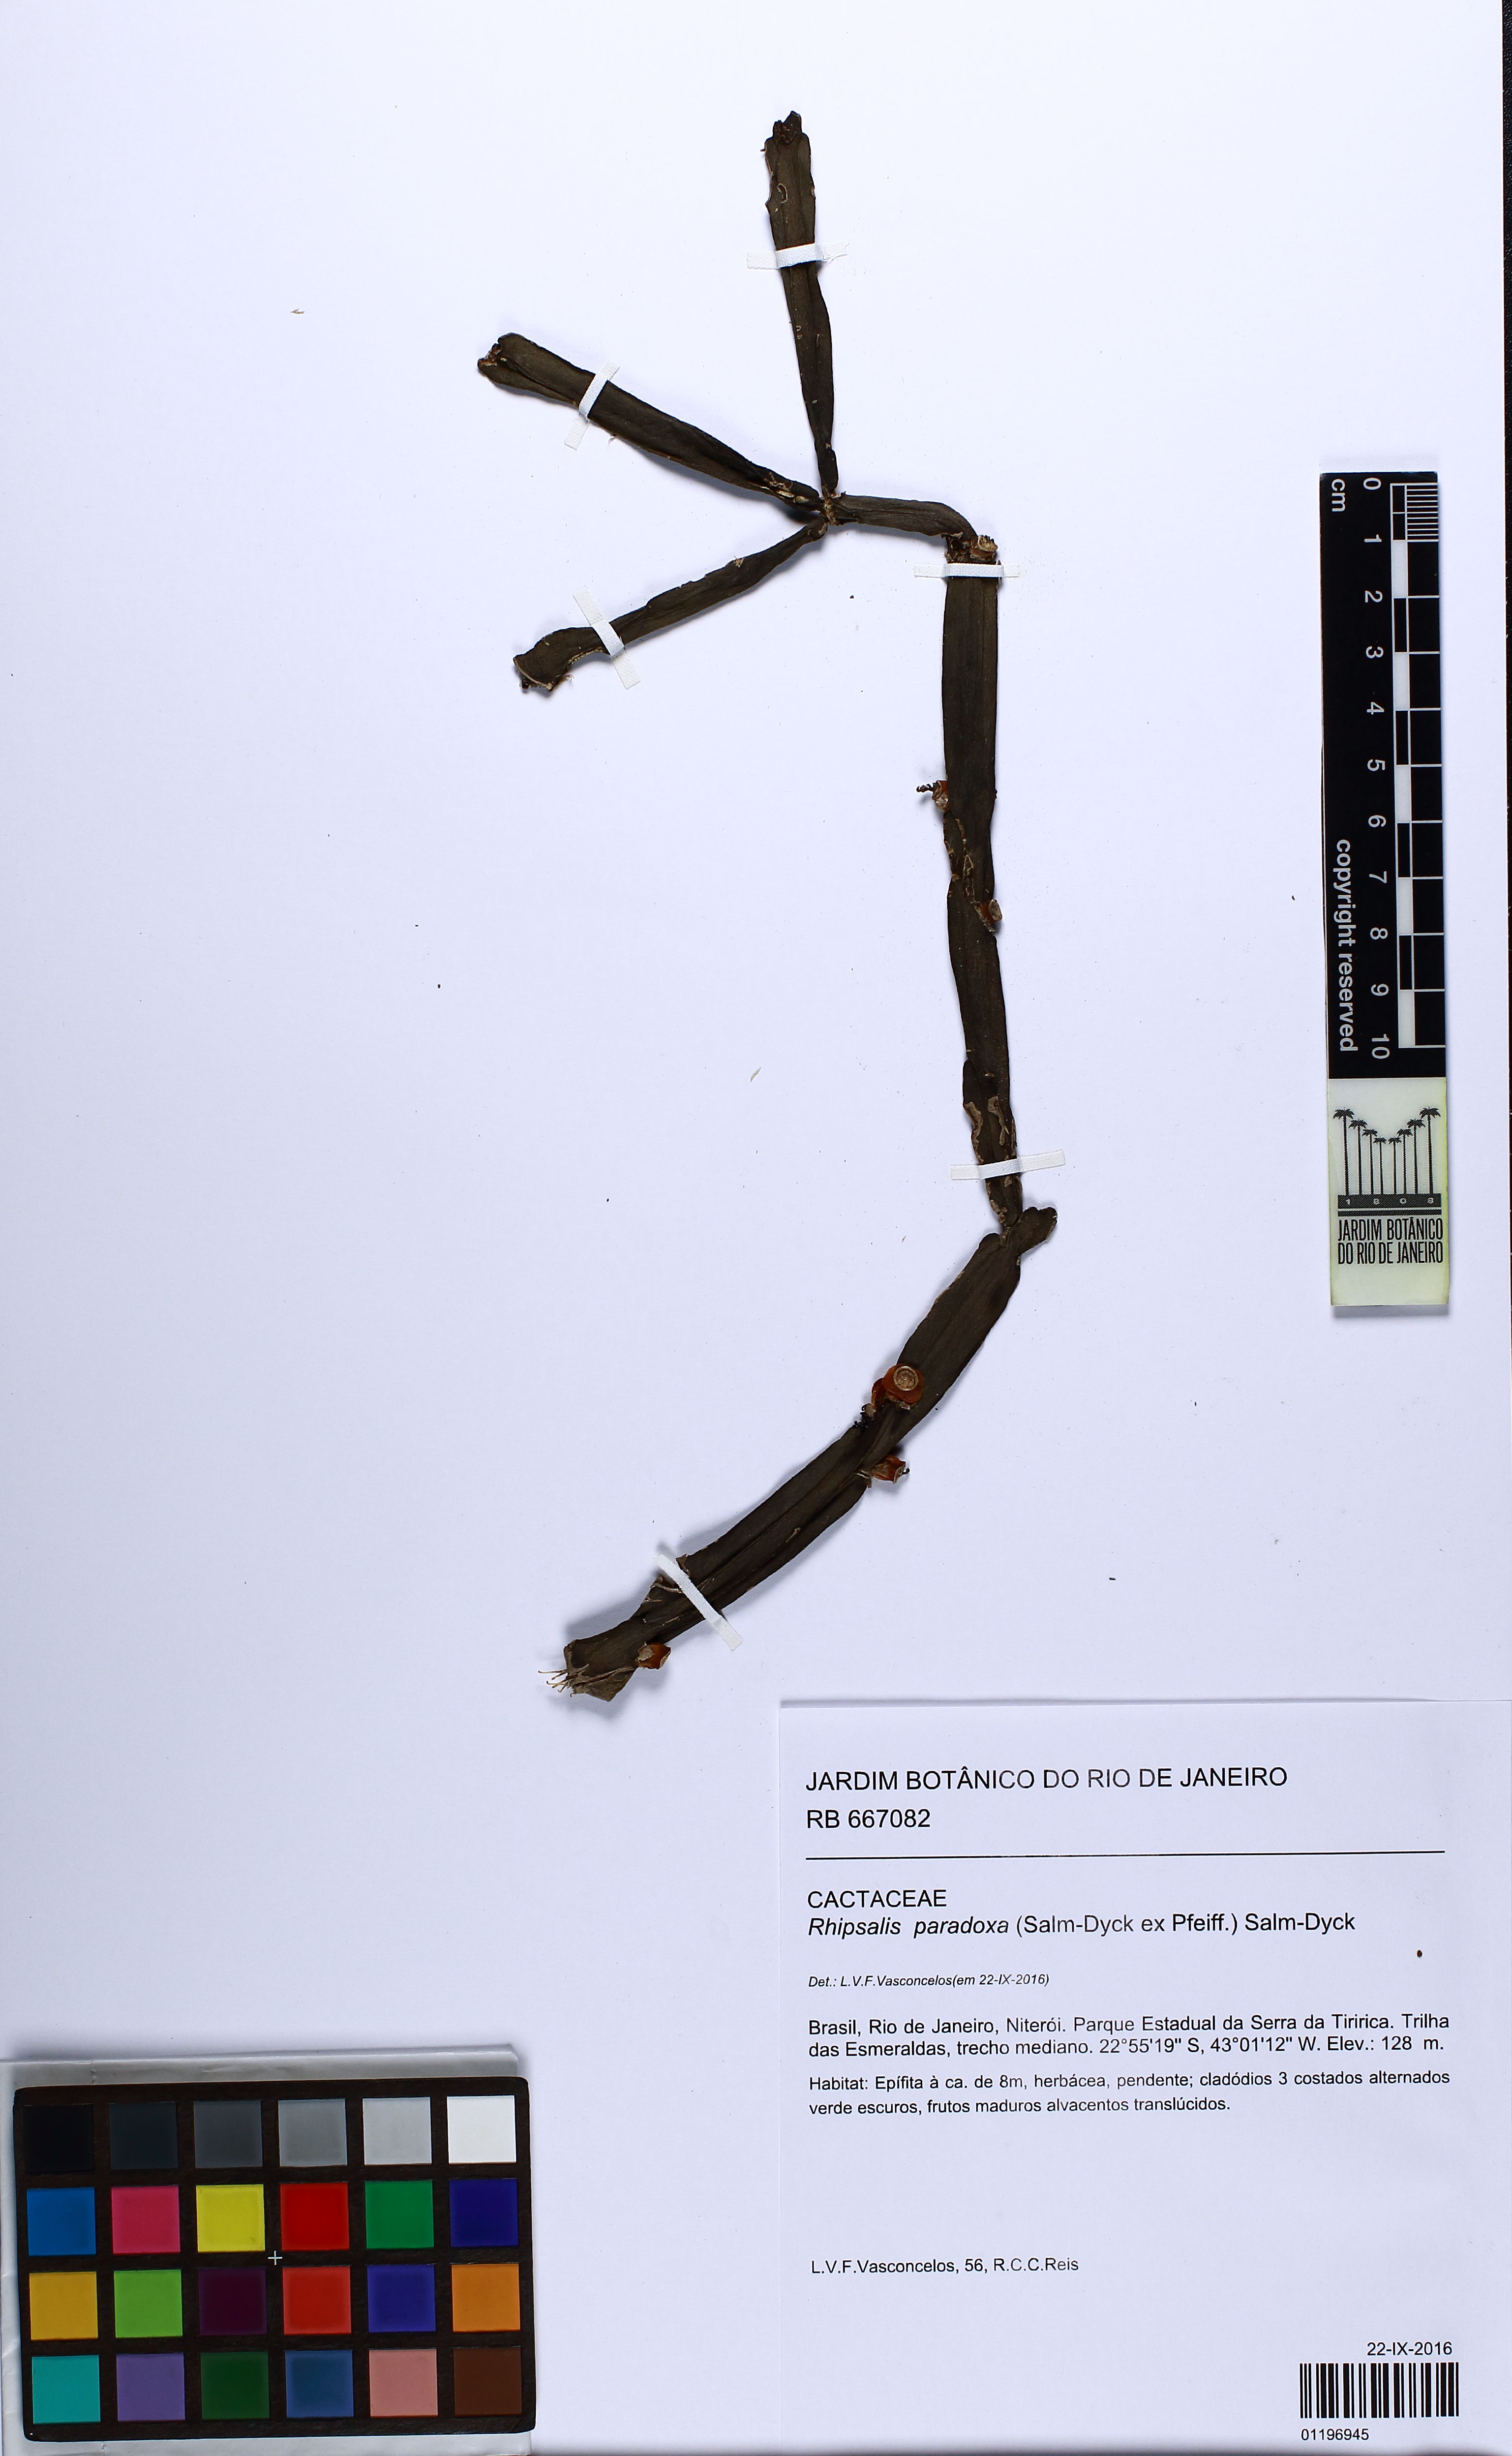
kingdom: Plantae
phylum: Tracheophyta
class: Magnoliopsida
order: Caryophyllales
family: Cactaceae
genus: Rhipsalis
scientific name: Rhipsalis paradoxa
